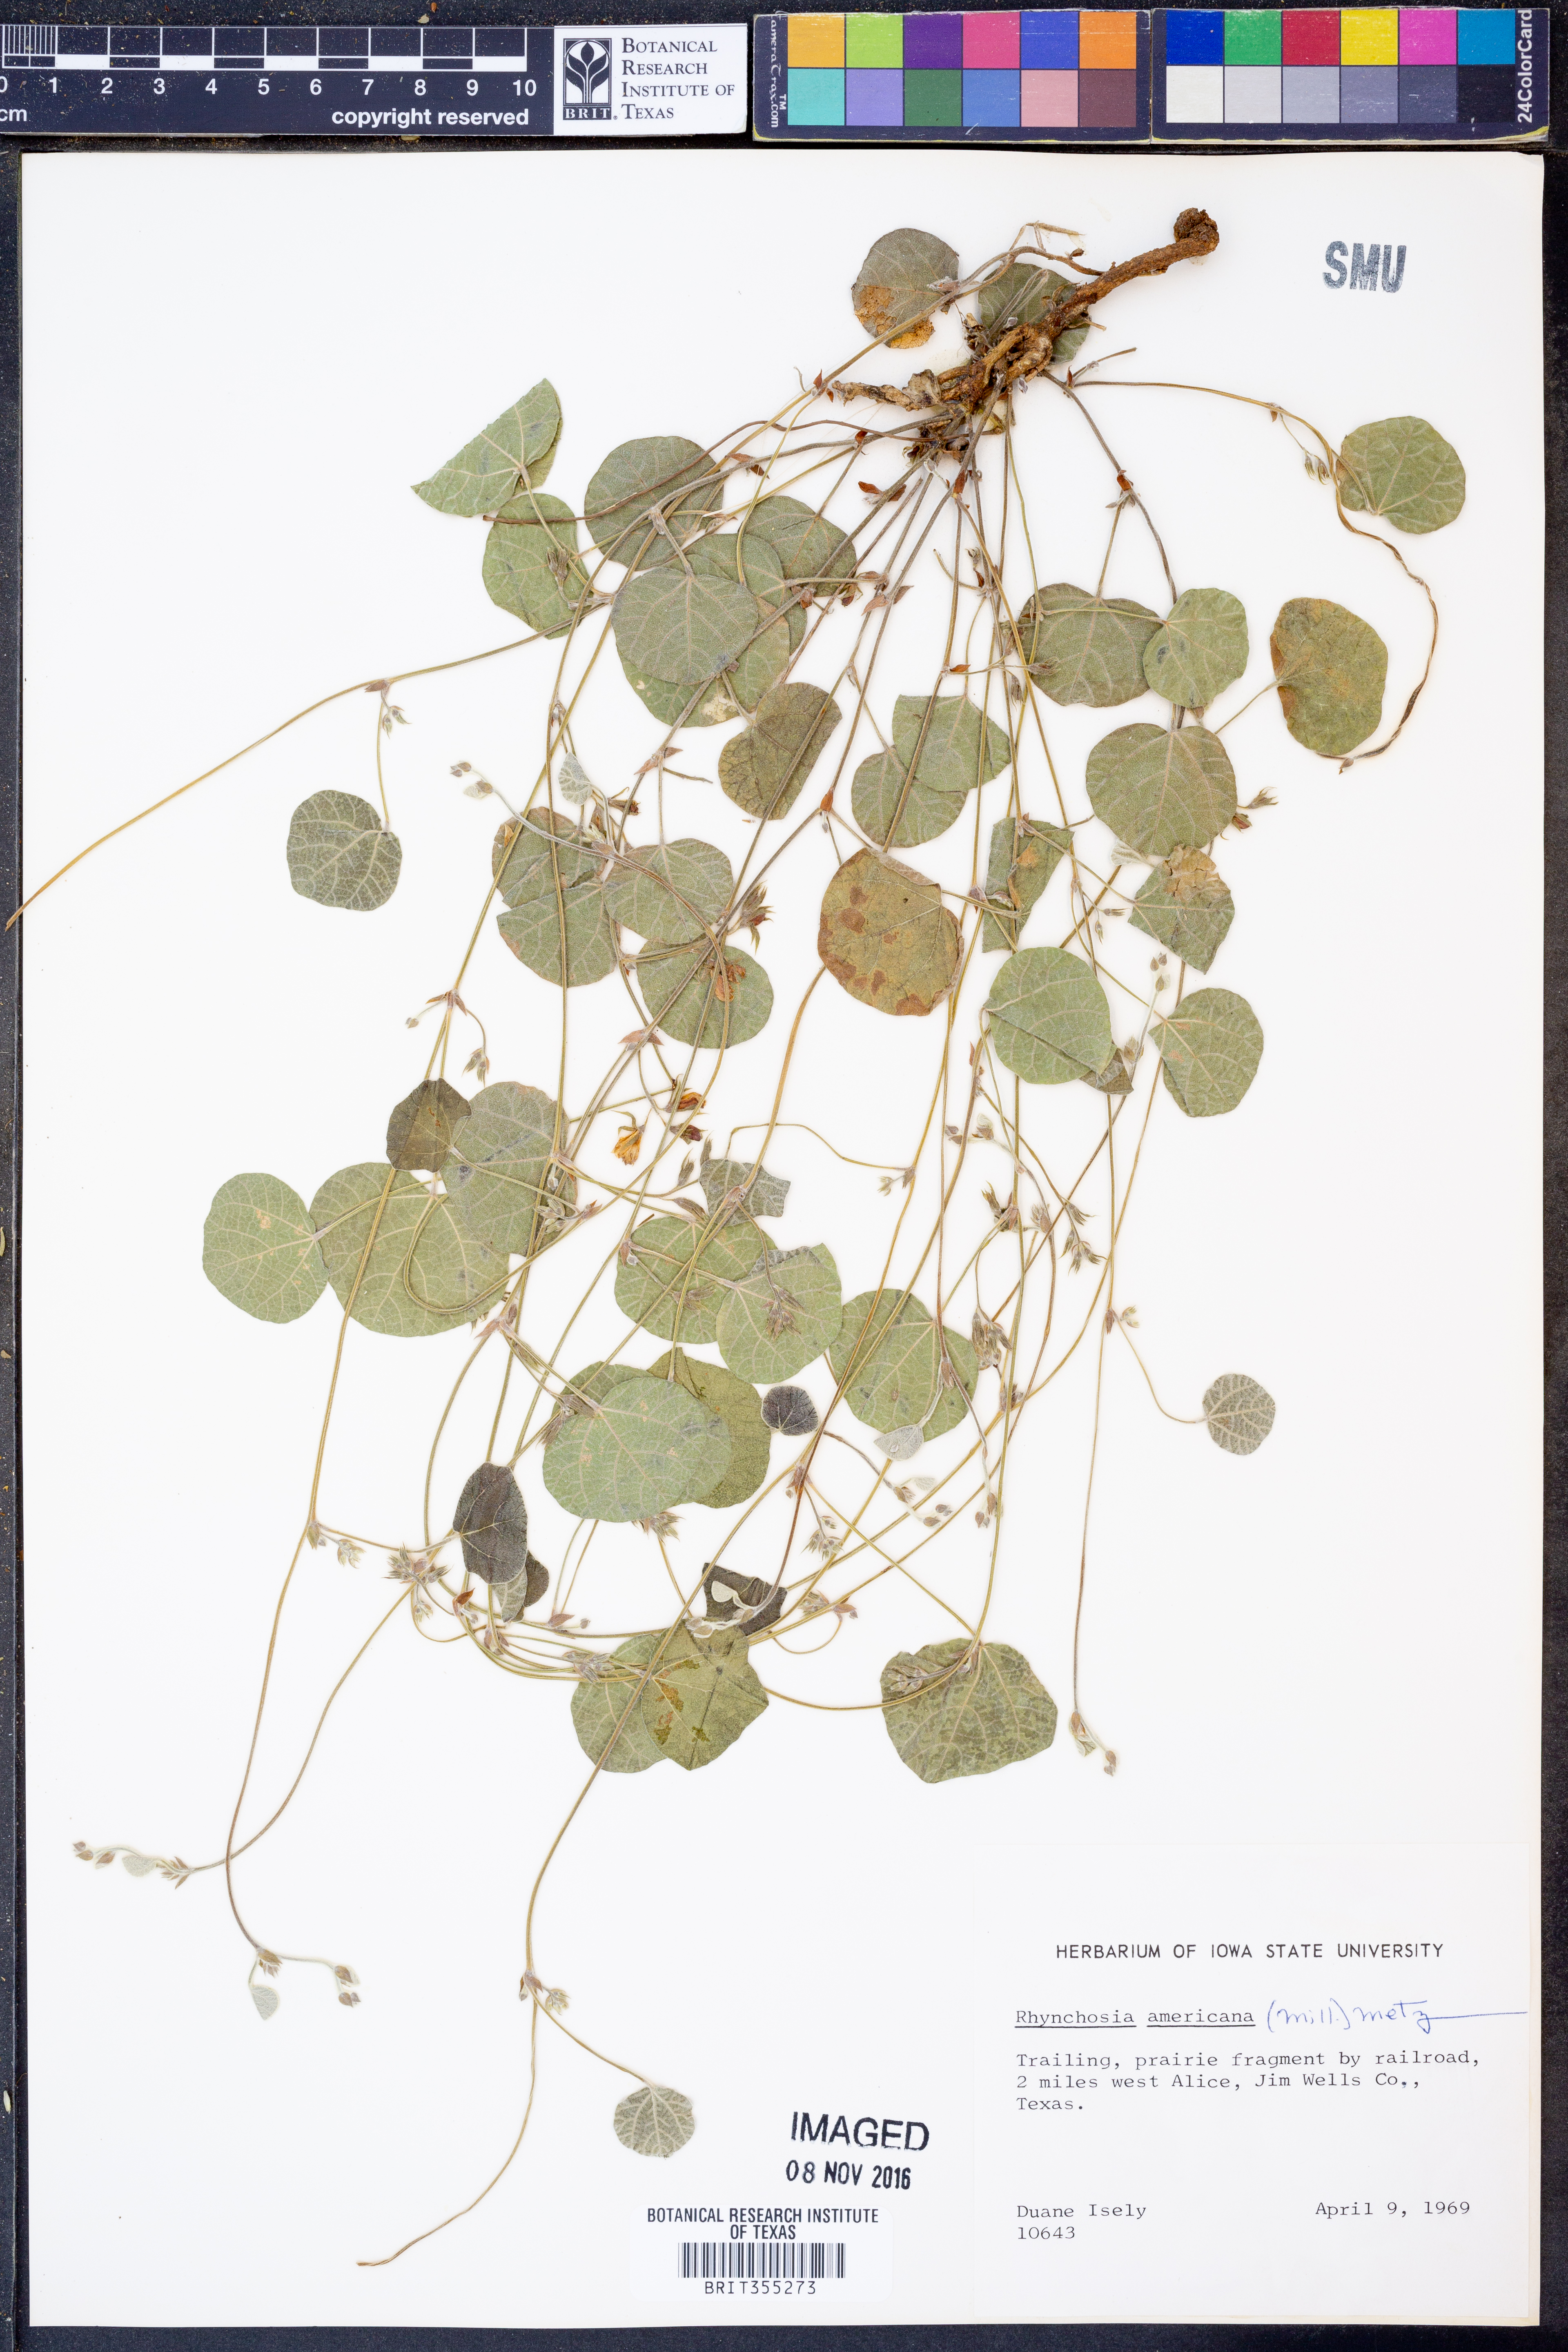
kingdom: Plantae
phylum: Tracheophyta
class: Magnoliopsida
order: Fabales
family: Fabaceae
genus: Rhynchosia
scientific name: Rhynchosia americana
